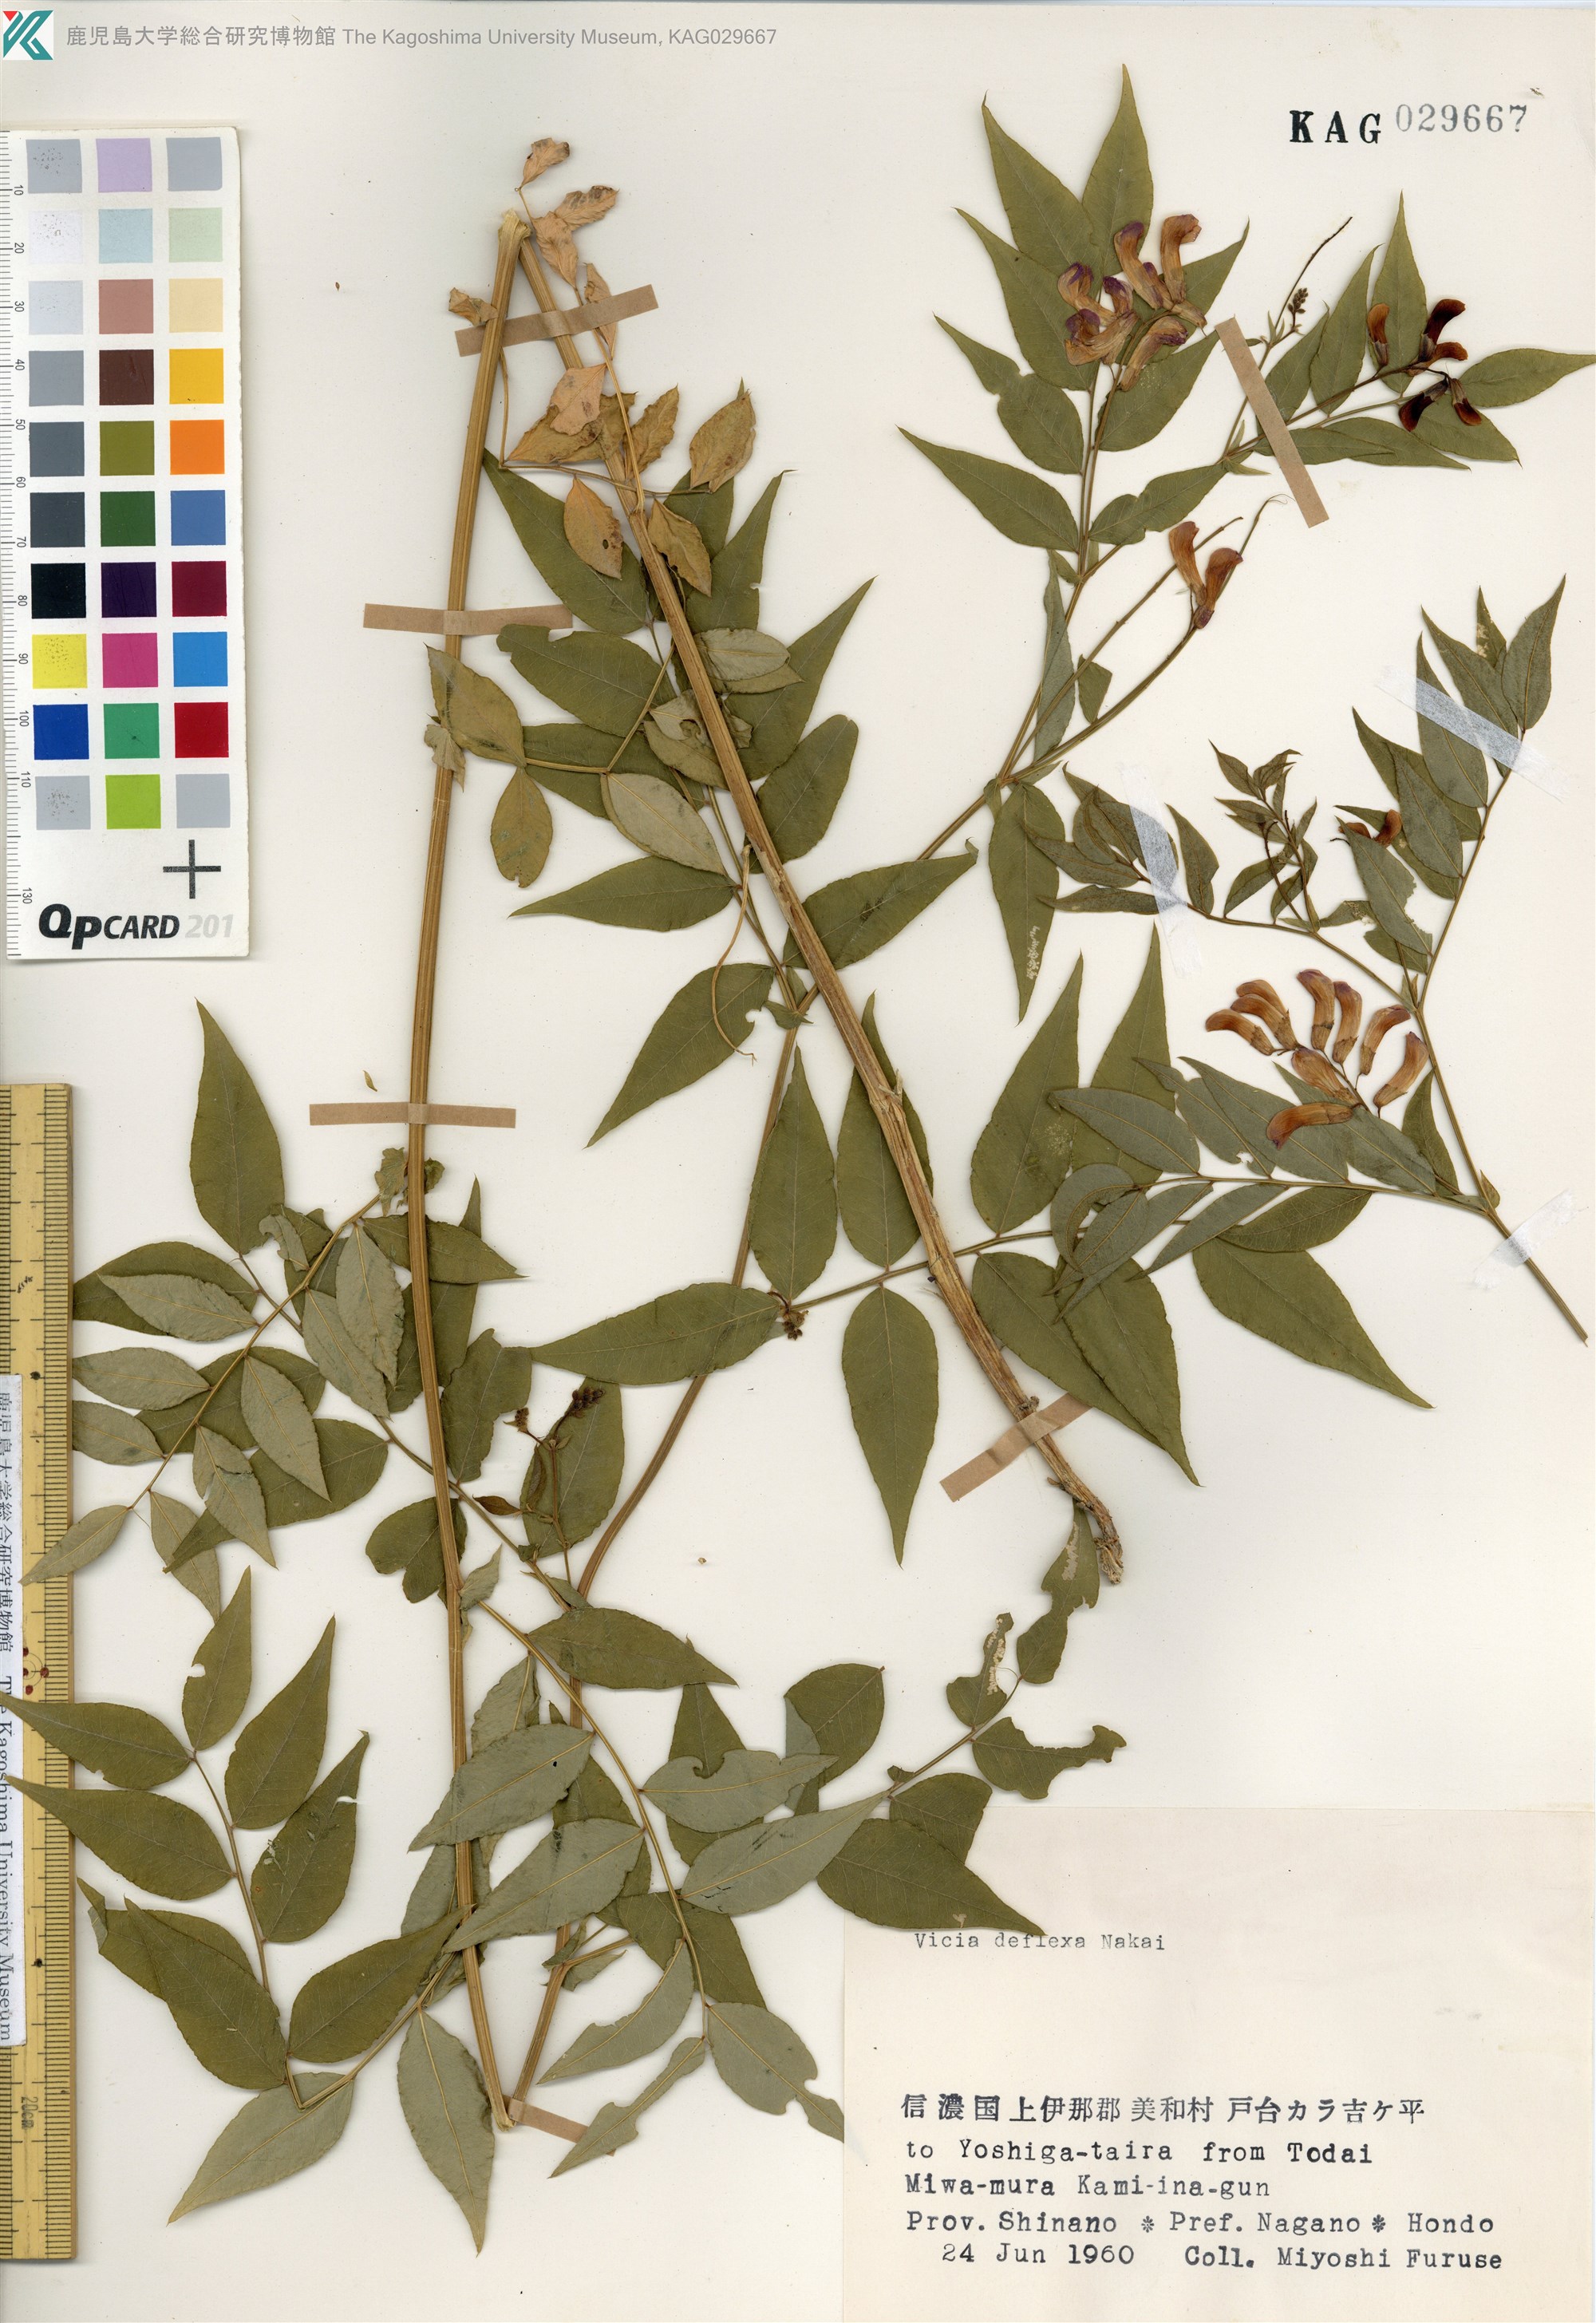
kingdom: Plantae
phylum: Tracheophyta
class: Magnoliopsida
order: Fabales
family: Fabaceae
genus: Vicia
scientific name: Vicia venosa
